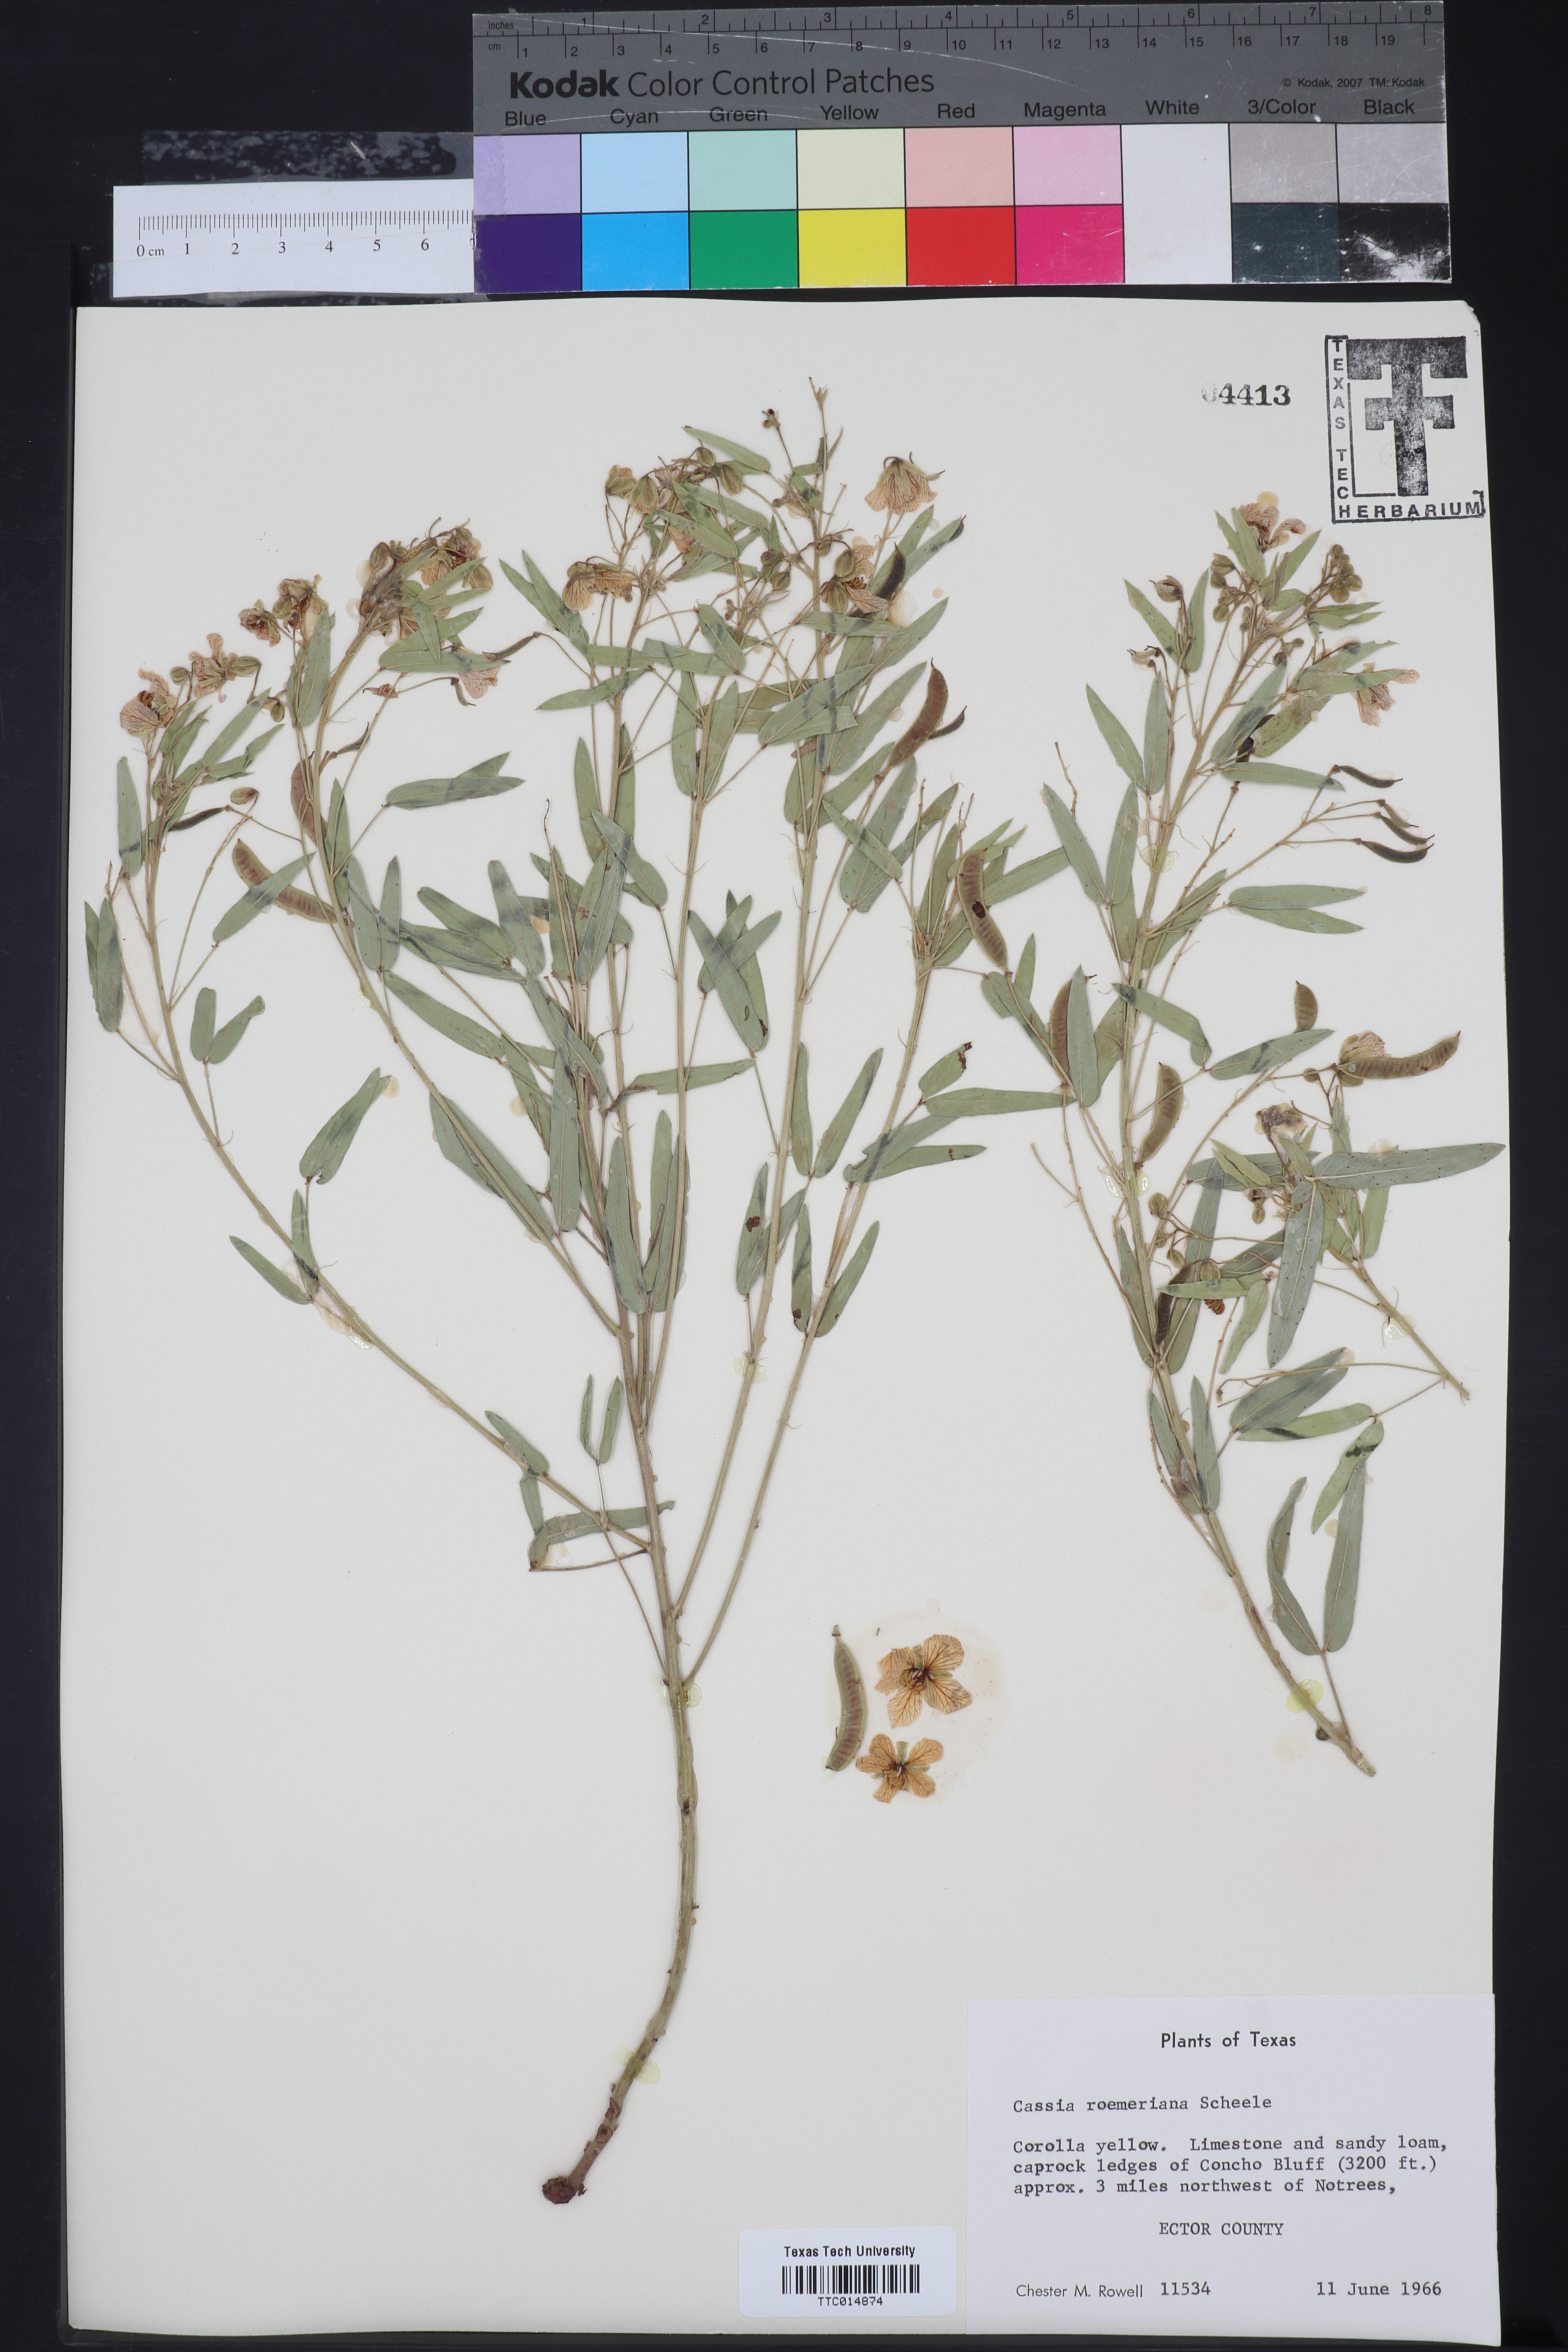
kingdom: Plantae
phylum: Tracheophyta
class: Magnoliopsida
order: Fabales
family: Fabaceae
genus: Senna
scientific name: Senna roemeriana
